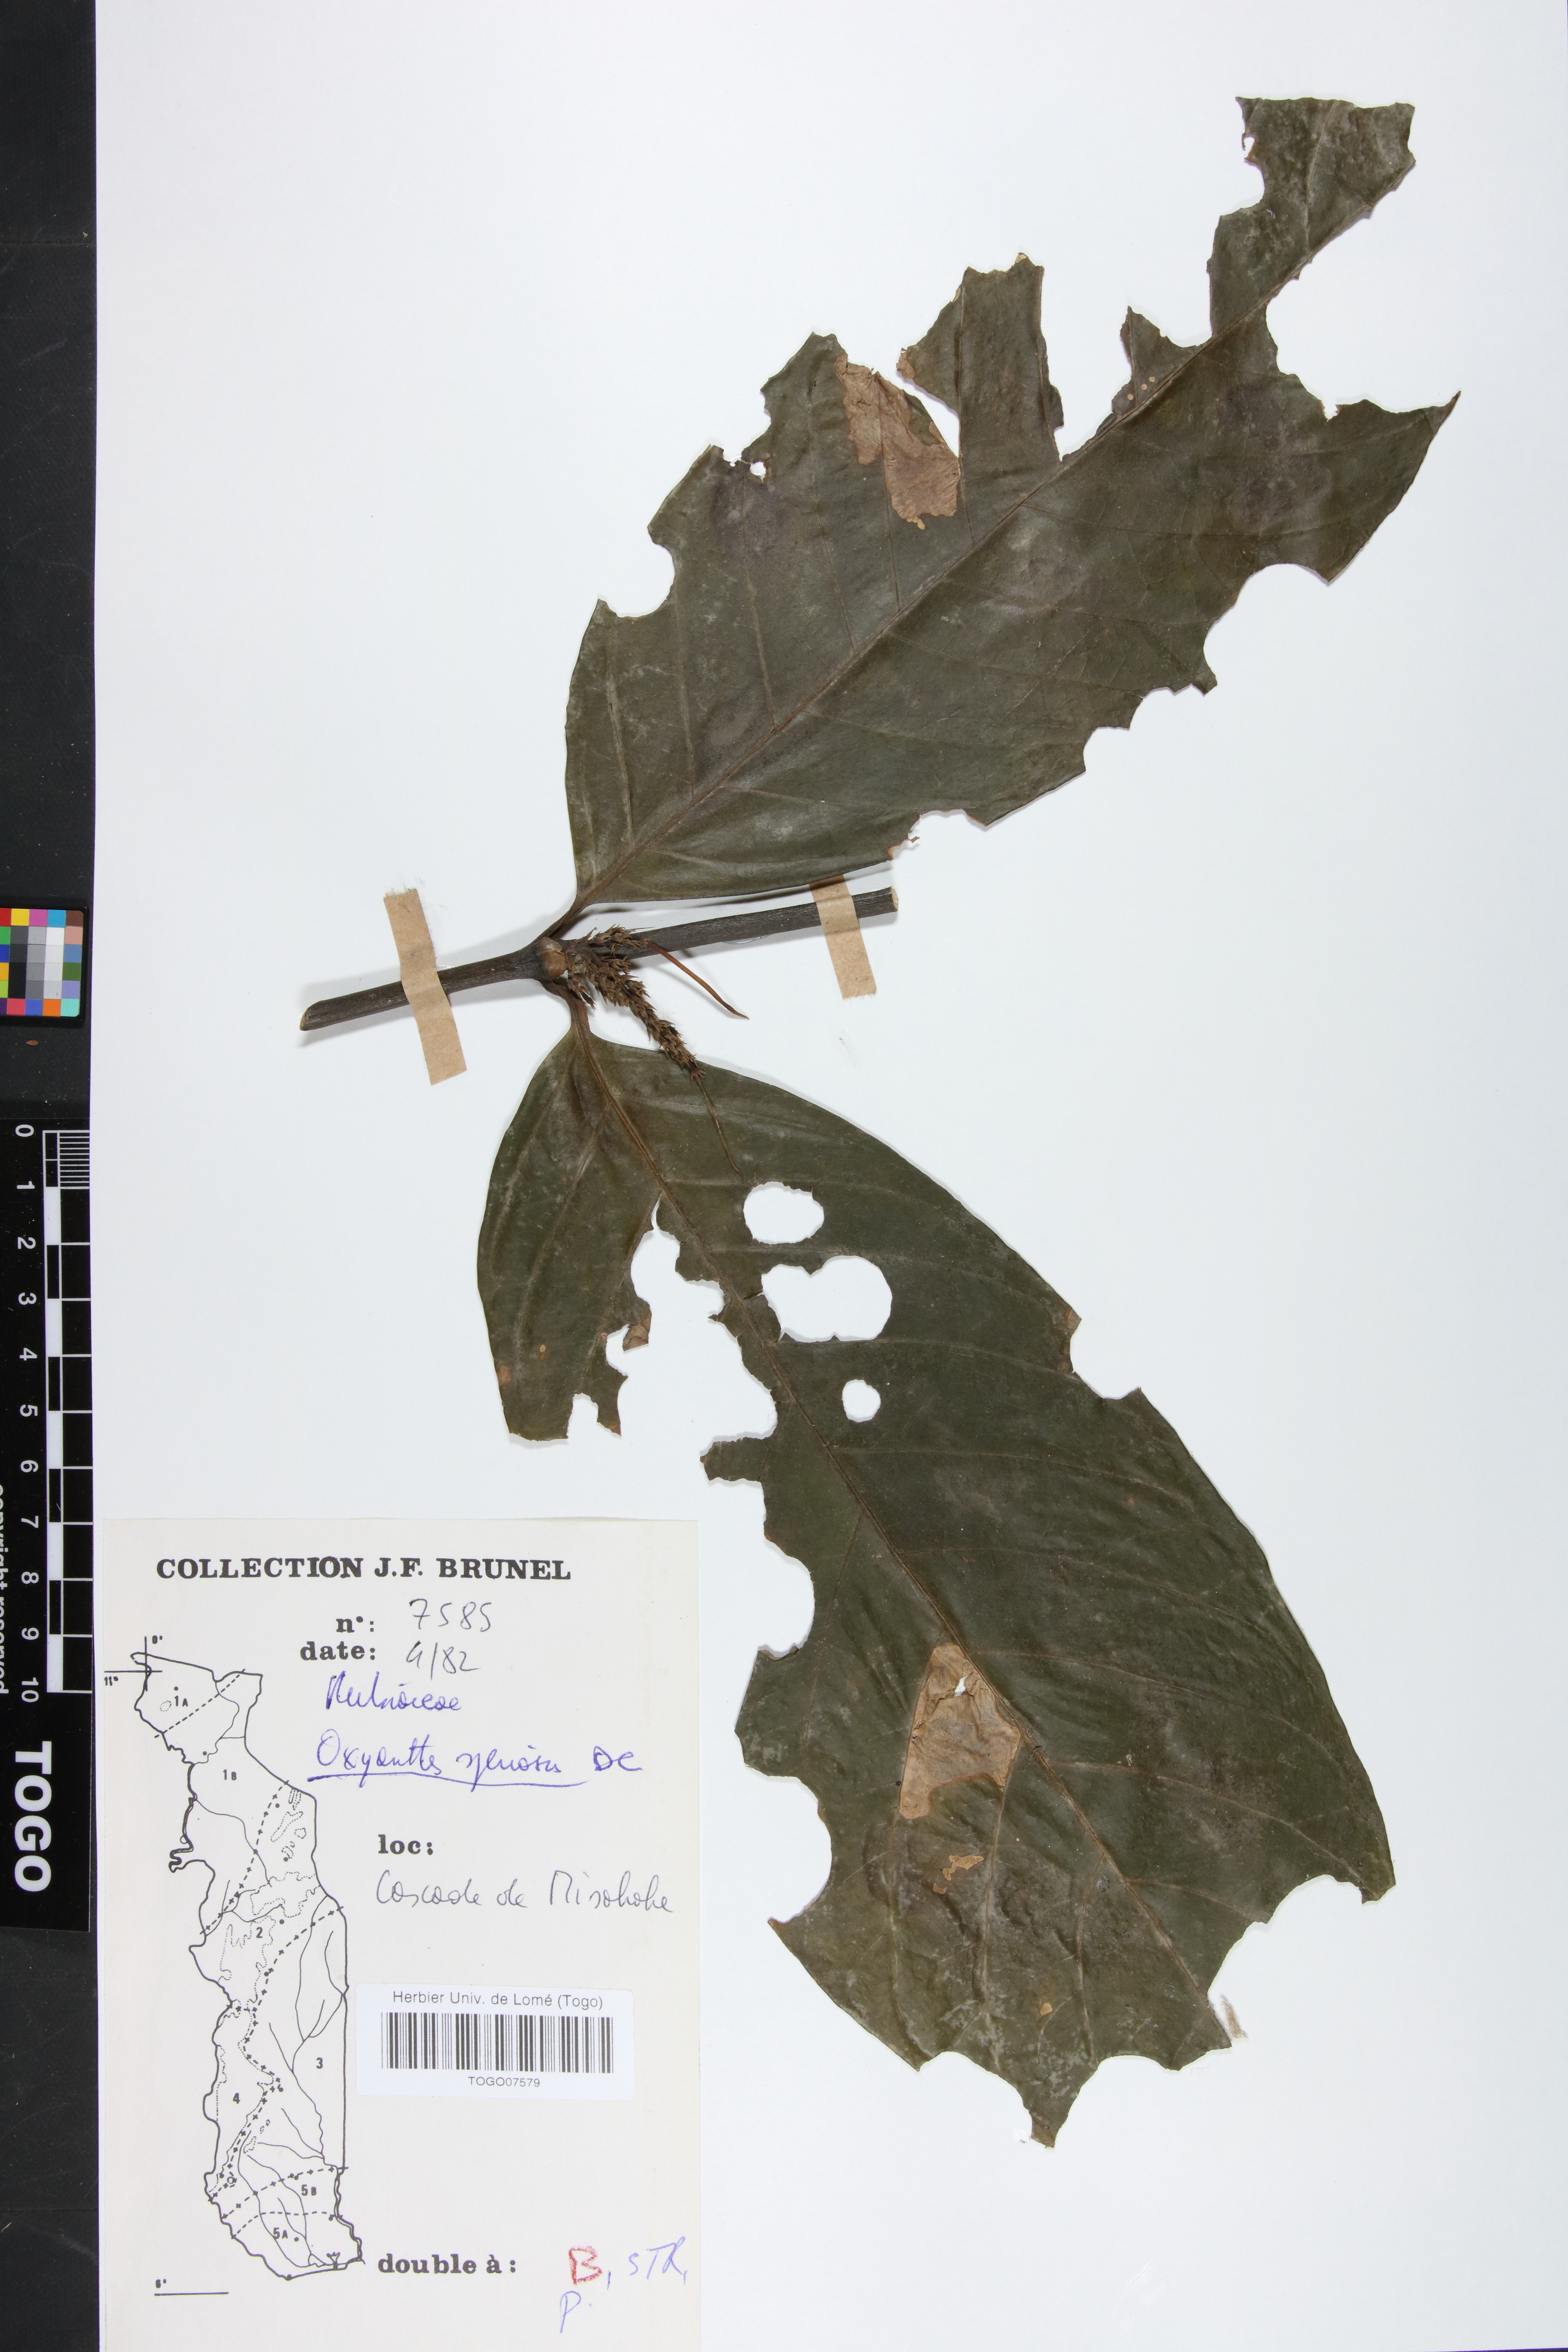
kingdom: Plantae
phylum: Tracheophyta
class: Magnoliopsida
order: Gentianales
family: Rubiaceae
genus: Oxyanthus
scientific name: Oxyanthus speciosus
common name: Whipstick loquat
